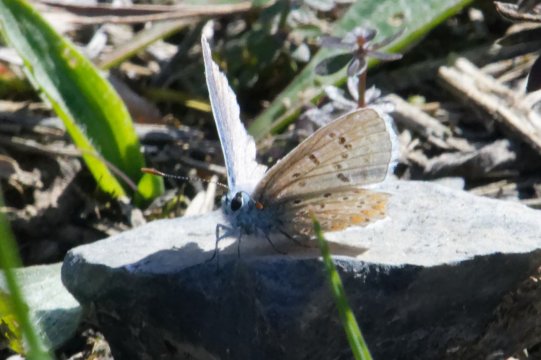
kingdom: Animalia
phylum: Arthropoda
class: Insecta
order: Lepidoptera
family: Lycaenidae
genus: Polyommatus
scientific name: Polyommatus icarus
